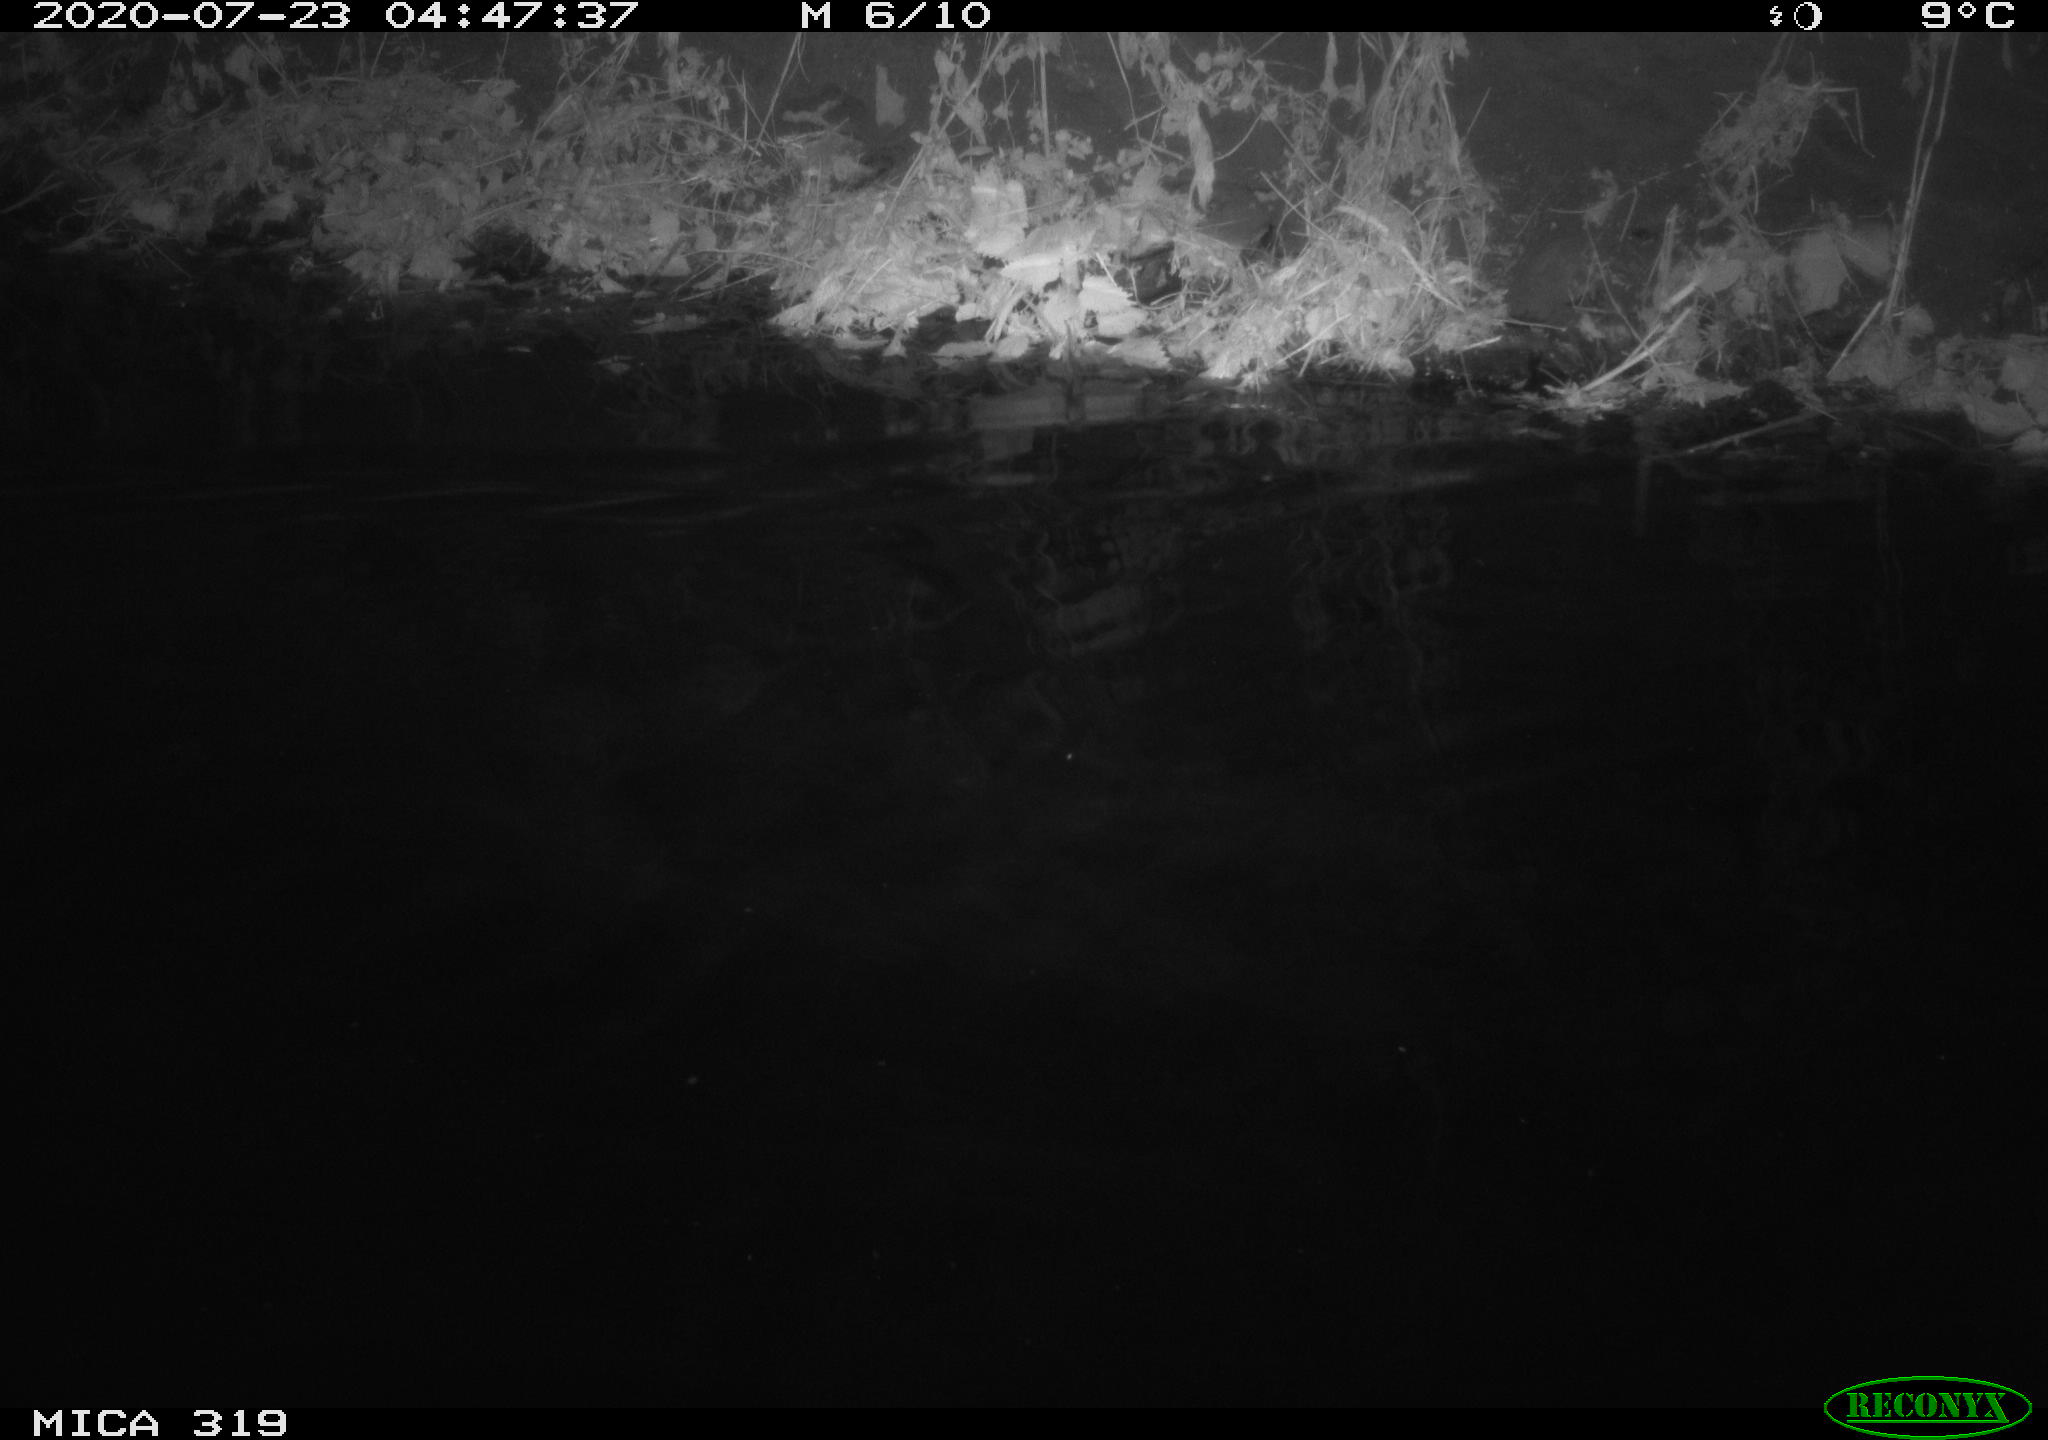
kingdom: Animalia
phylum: Chordata
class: Aves
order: Anseriformes
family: Anatidae
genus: Anas
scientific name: Anas platyrhynchos
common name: Mallard
